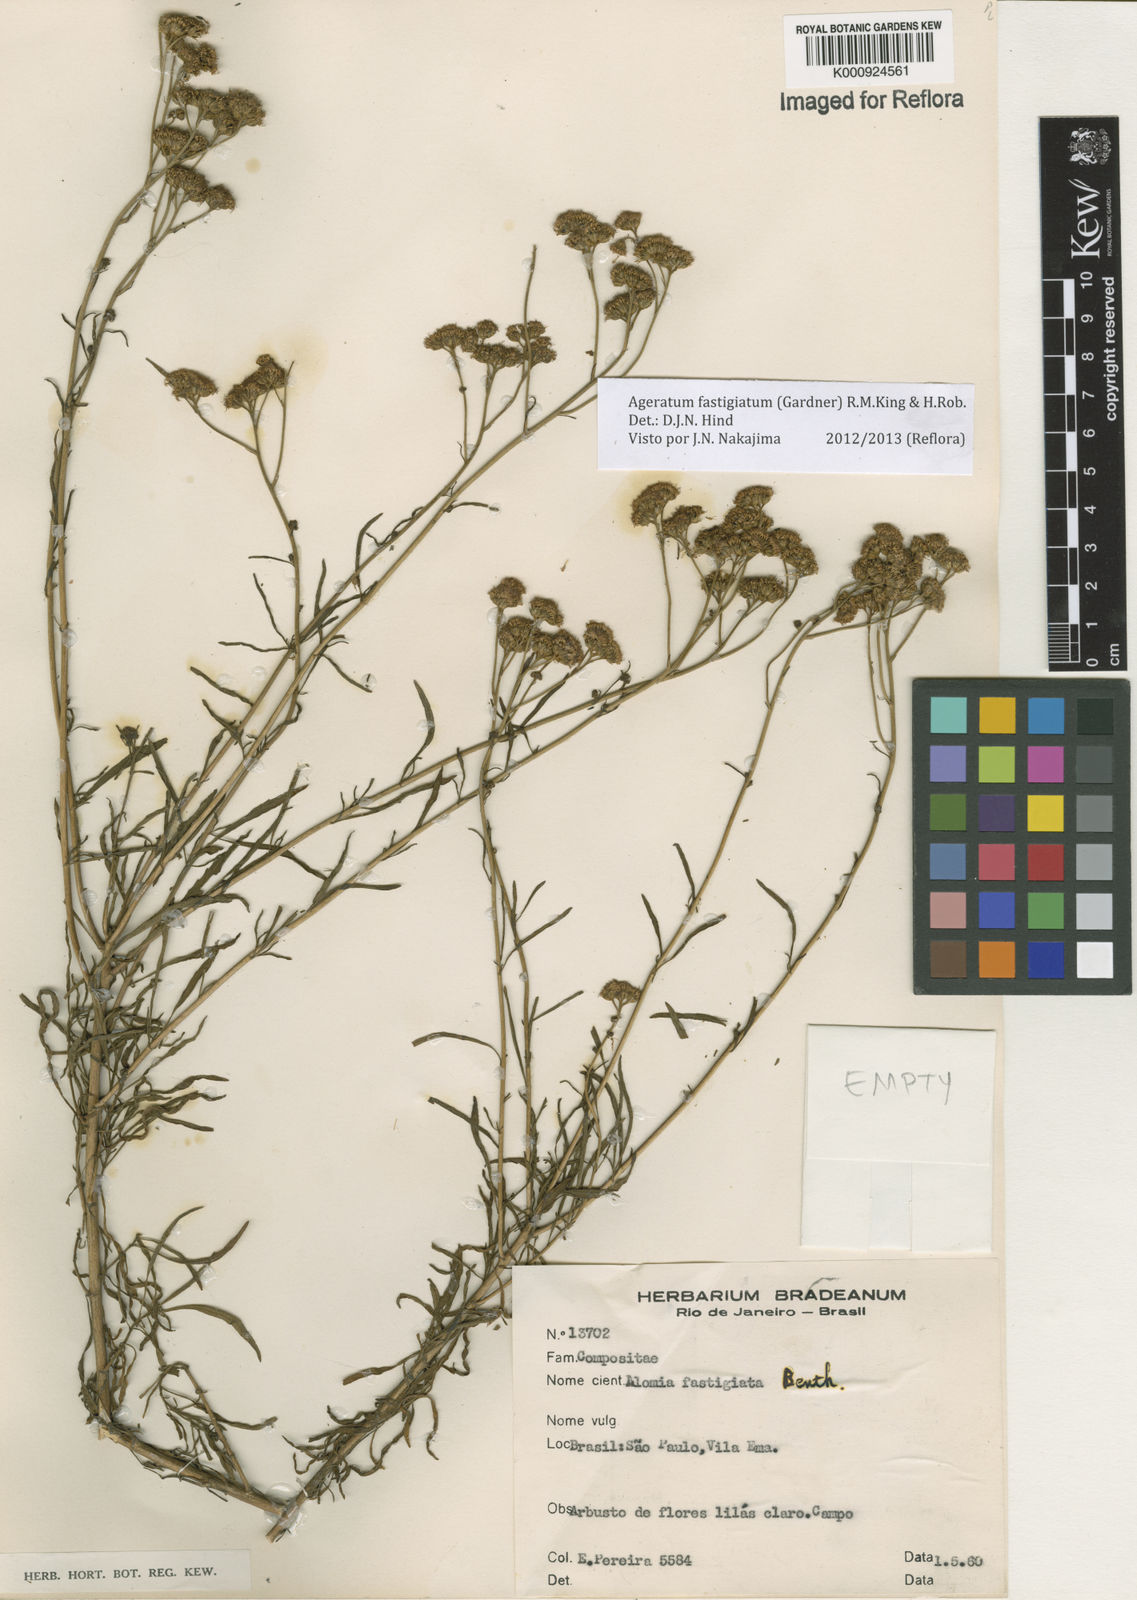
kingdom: Plantae
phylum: Tracheophyta
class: Magnoliopsida
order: Asterales
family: Asteraceae
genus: Ageratum
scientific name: Ageratum fastigiatum
